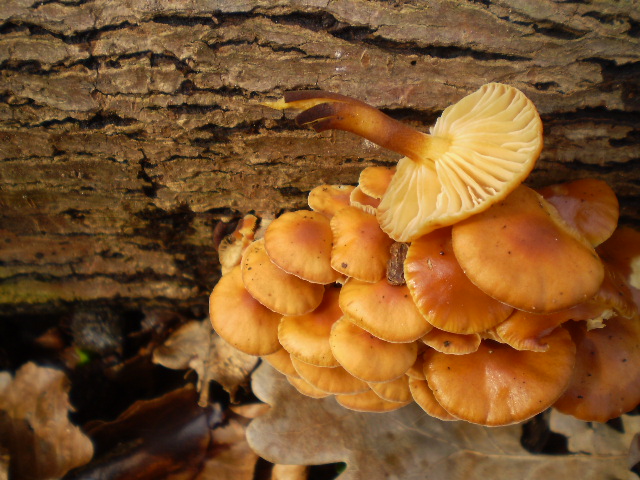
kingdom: Fungi
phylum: Basidiomycota
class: Agaricomycetes
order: Agaricales
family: Physalacriaceae
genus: Flammulina
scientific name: Flammulina velutipes
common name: gul fløjlsfod
